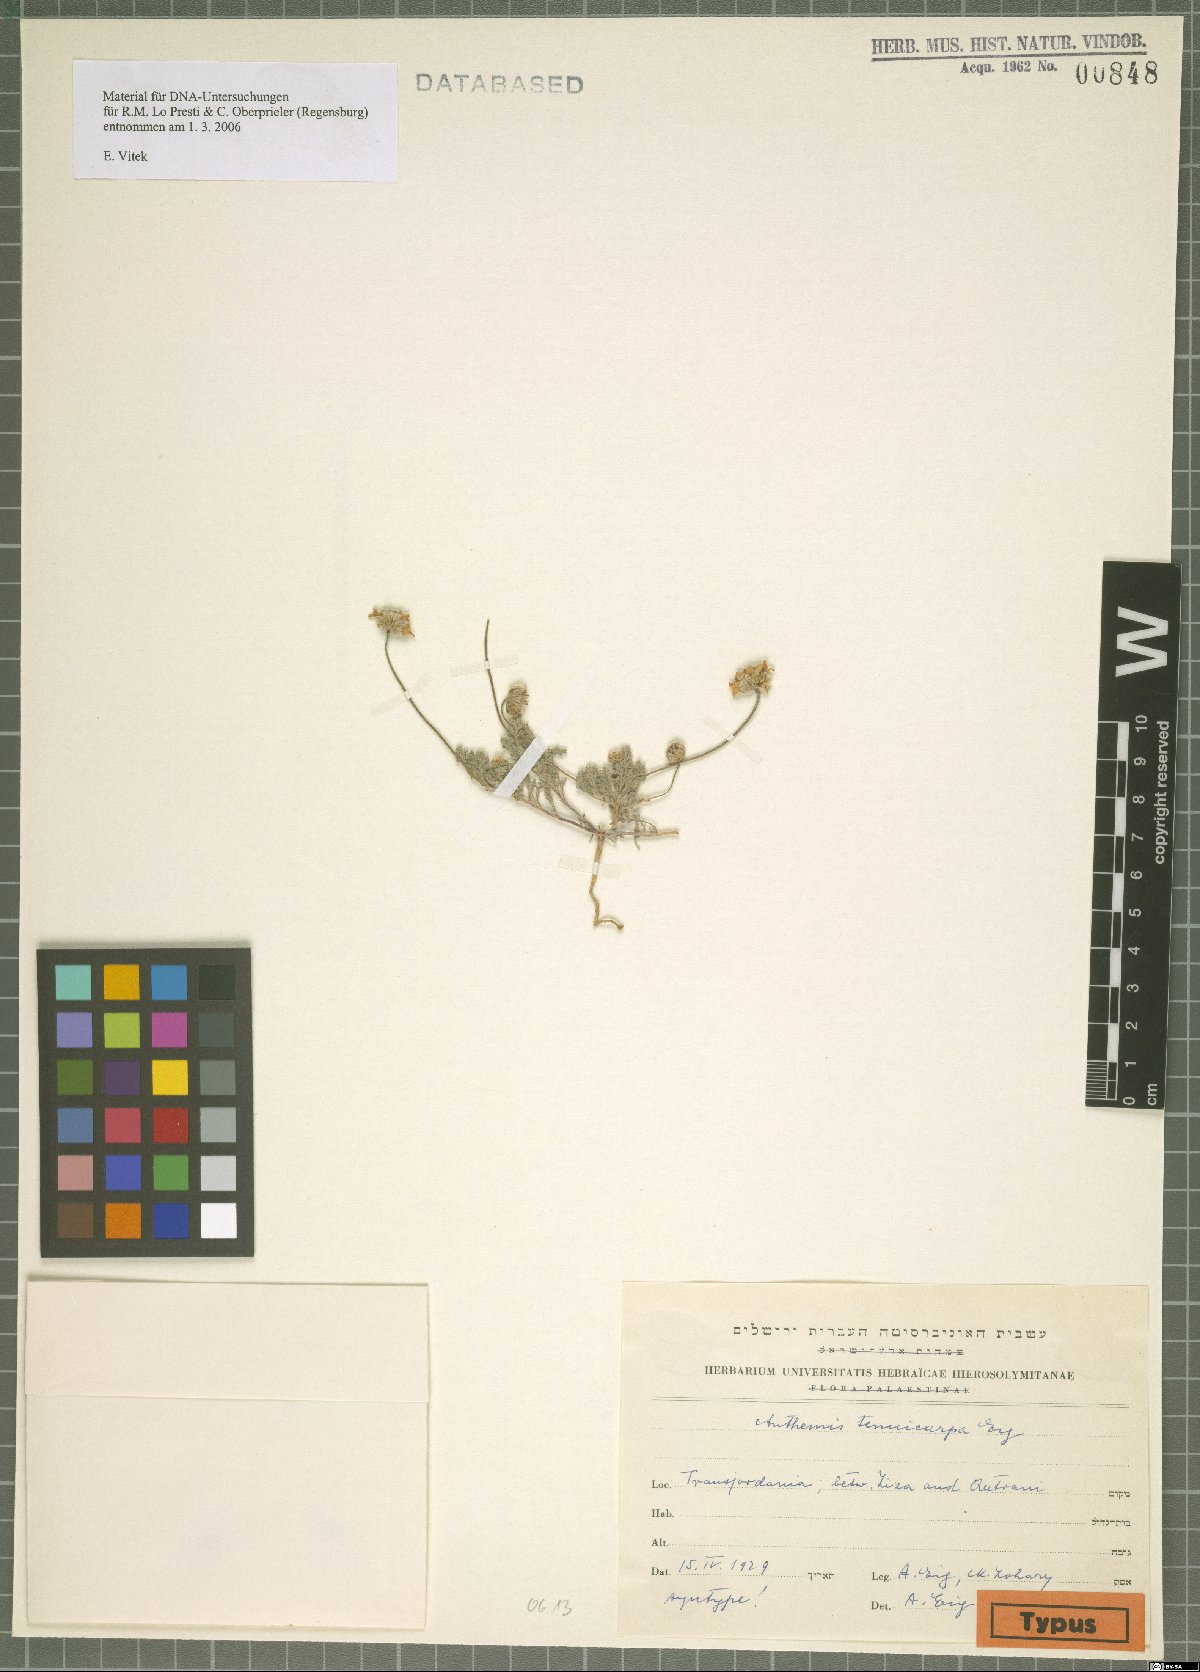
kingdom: Plantae
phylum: Tracheophyta
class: Magnoliopsida
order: Asterales
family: Asteraceae
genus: Anthemis
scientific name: Anthemis tenuicarpa
